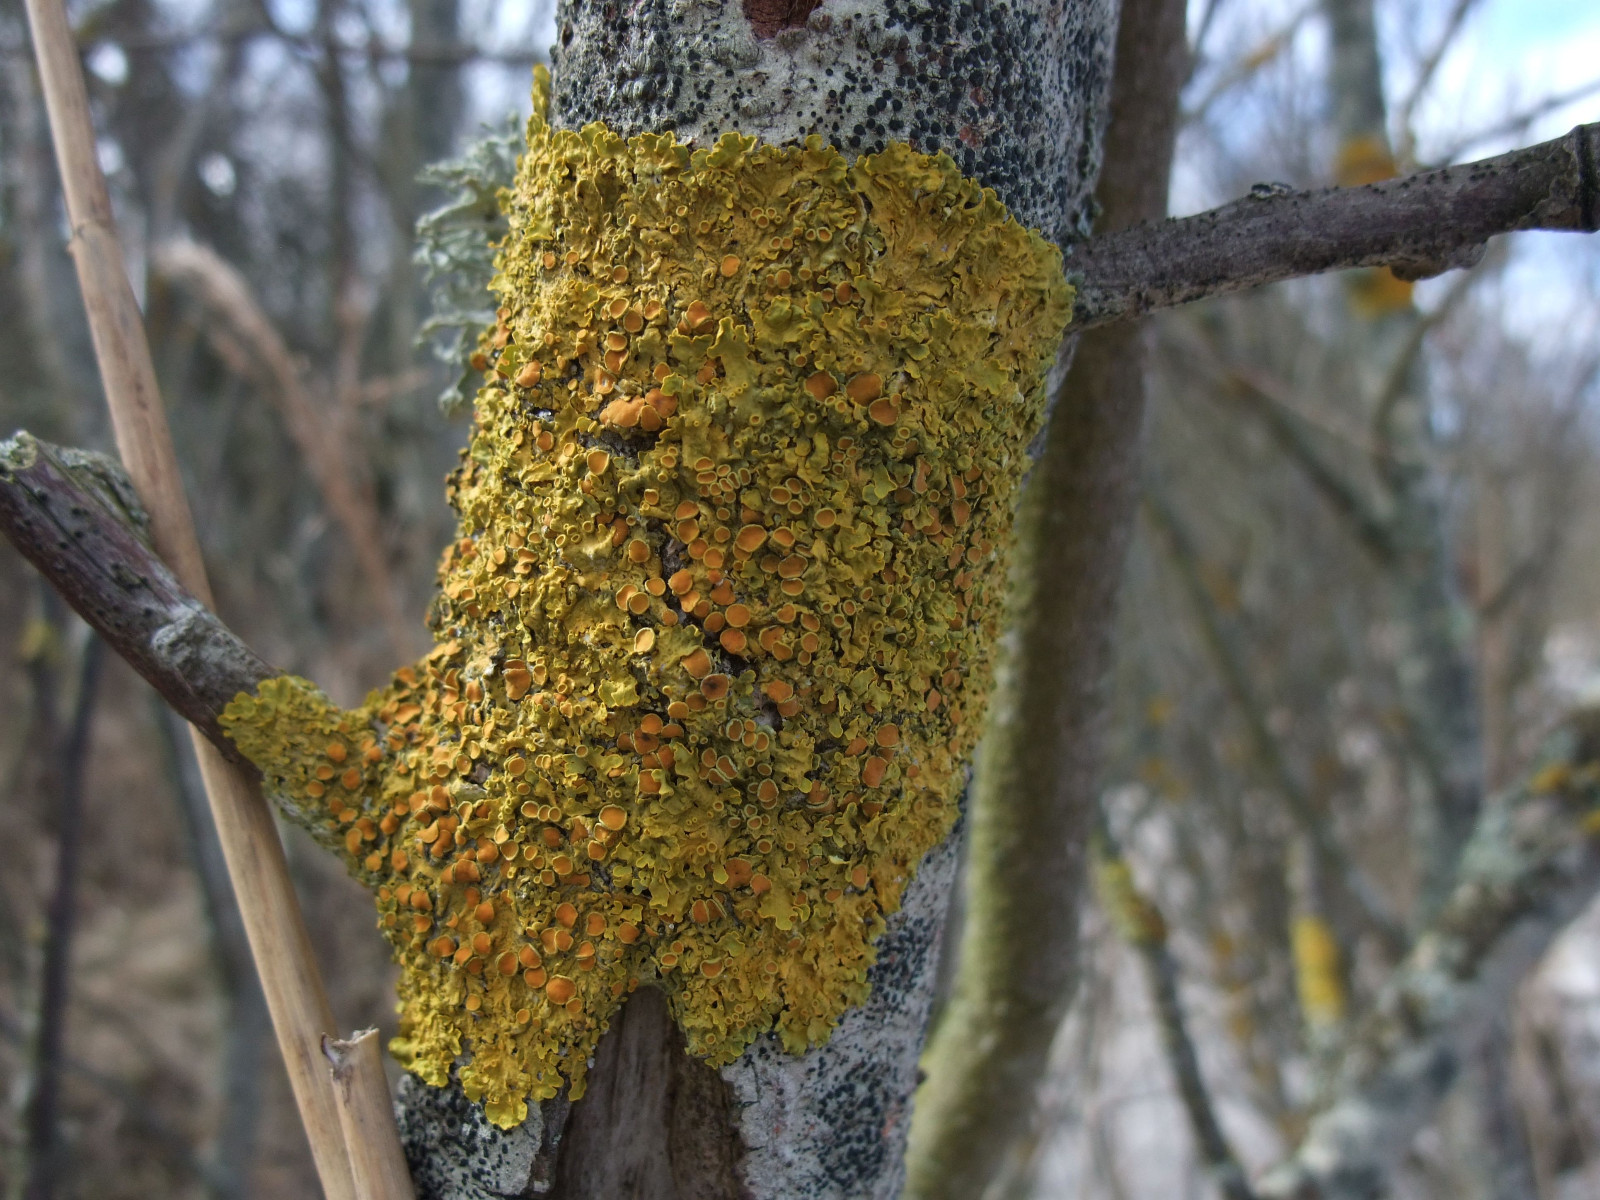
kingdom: Fungi
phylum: Ascomycota
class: Lecanoromycetes
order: Teloschistales
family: Teloschistaceae
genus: Xanthoria
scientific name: Xanthoria parietina
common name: almindelig væggelav
